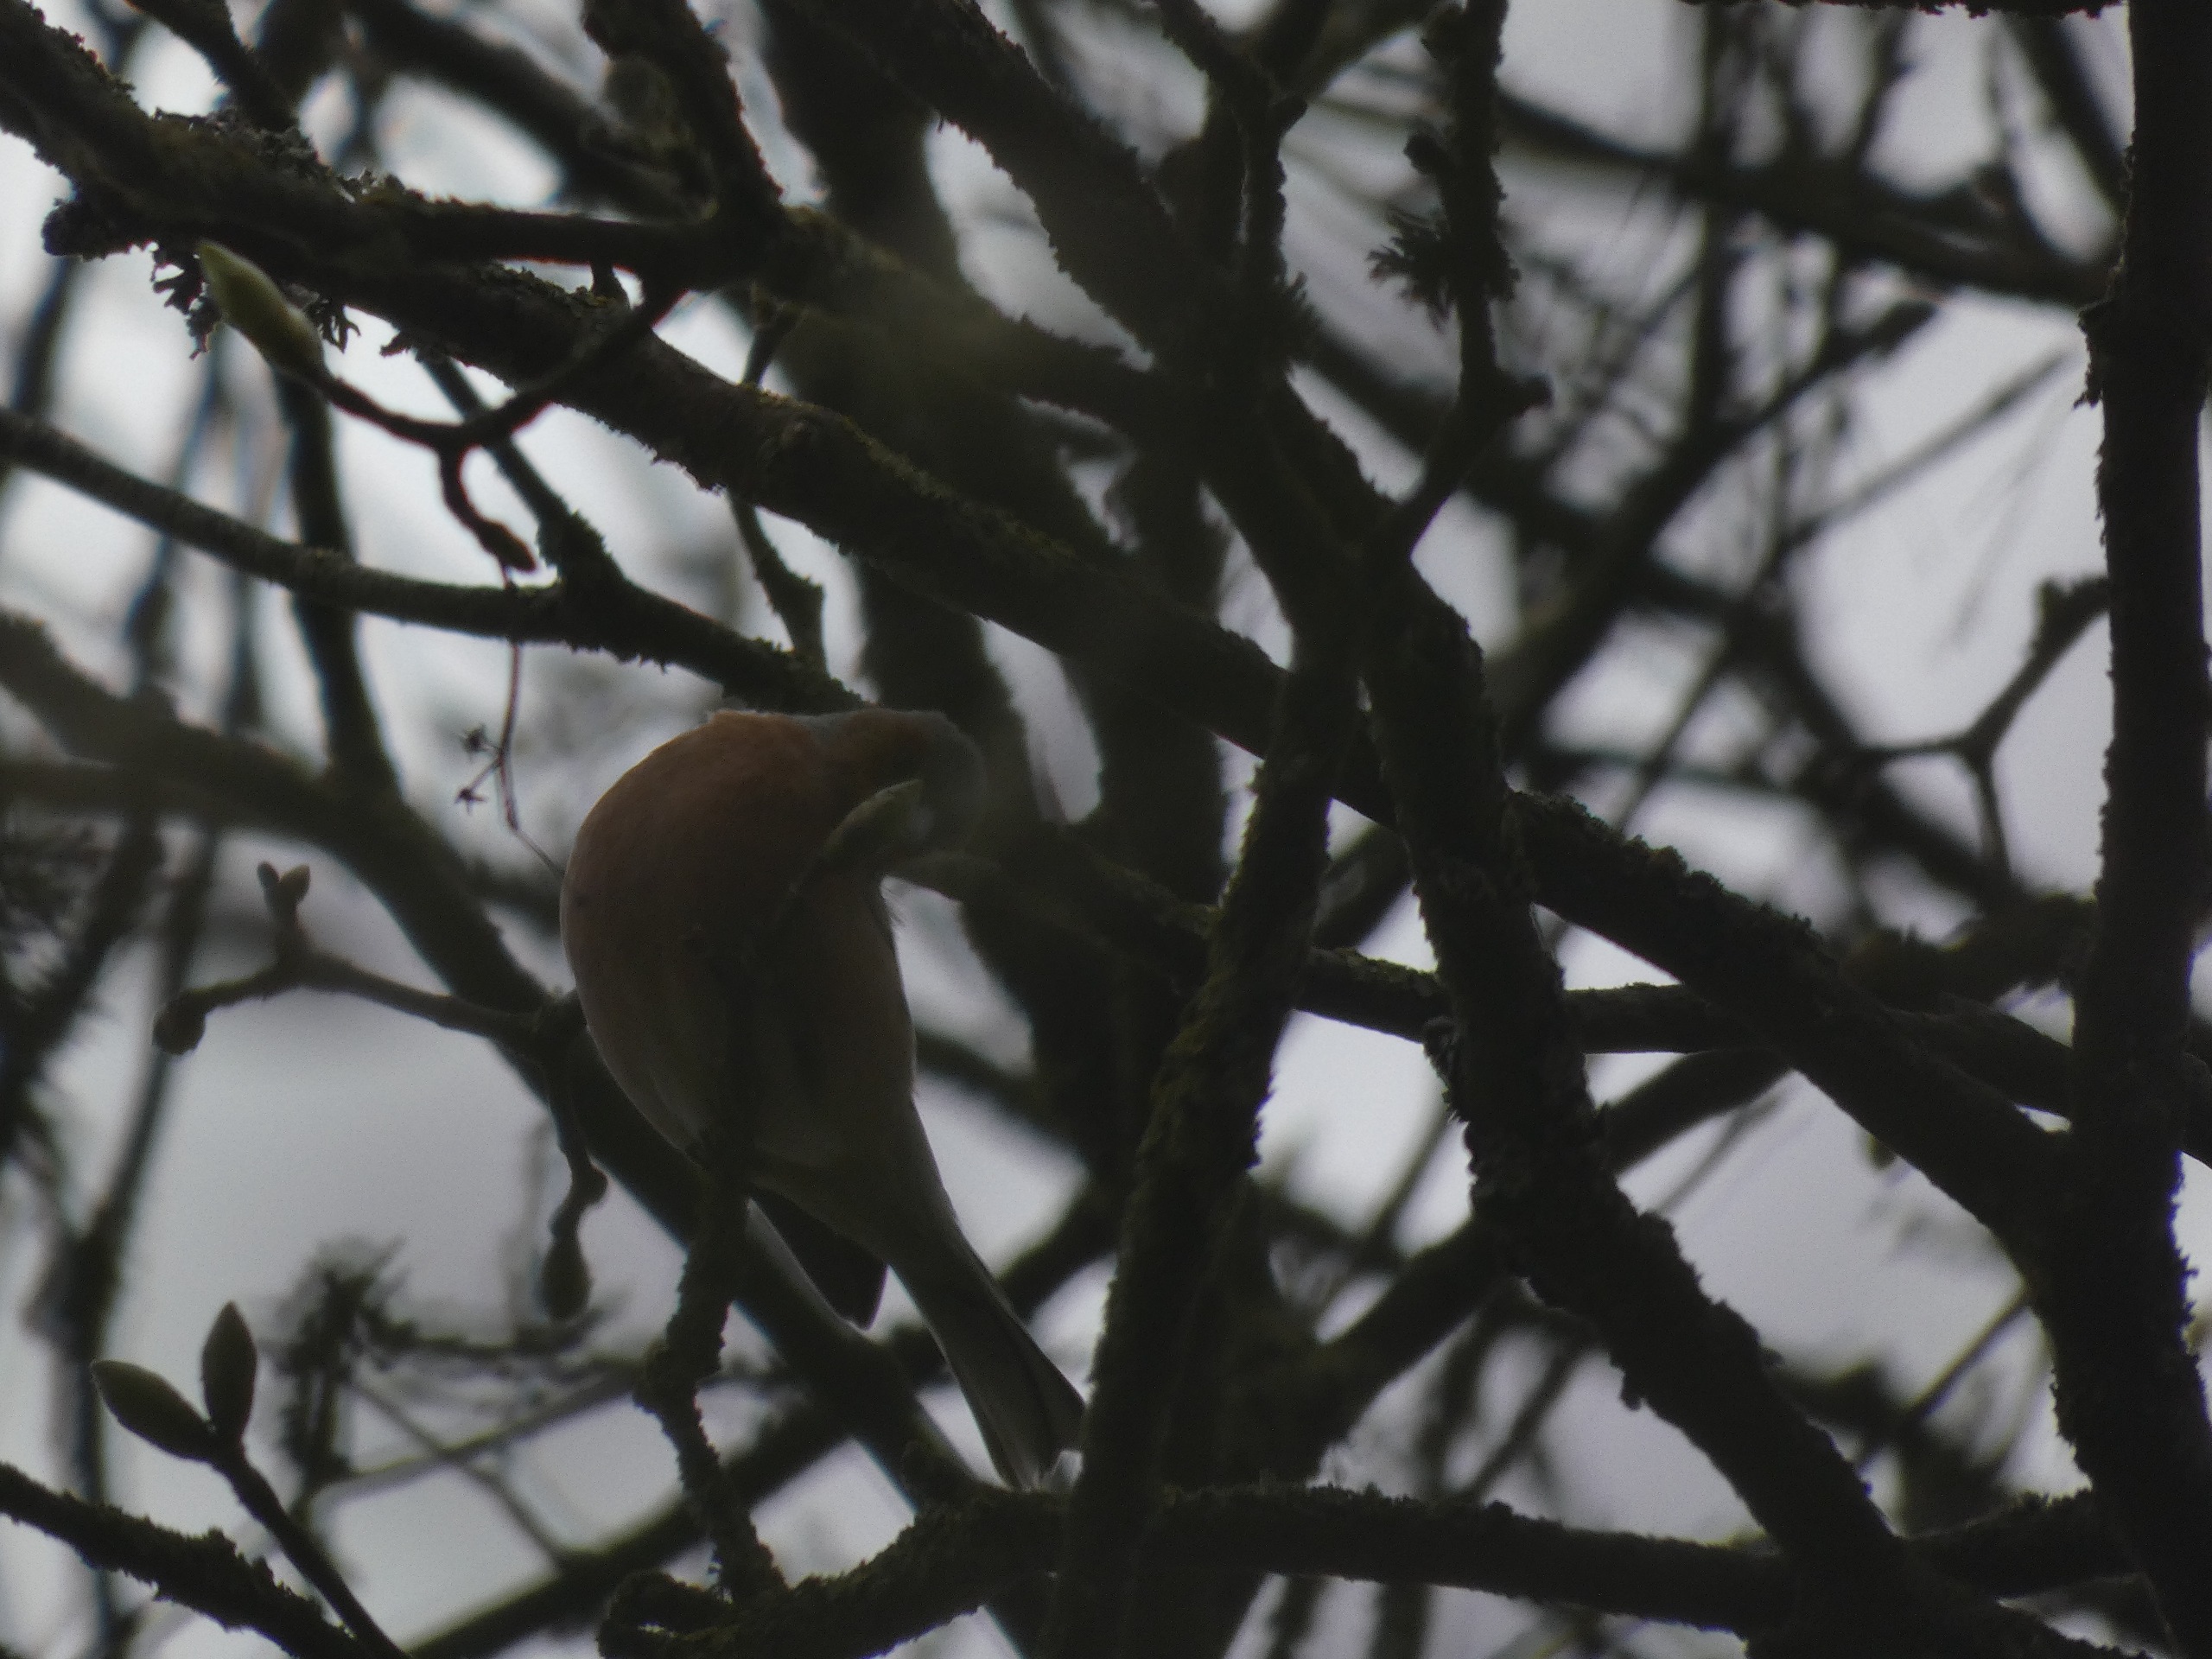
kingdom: Animalia
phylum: Chordata
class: Aves
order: Passeriformes
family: Fringillidae
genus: Fringilla
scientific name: Fringilla coelebs
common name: Bogfinke
